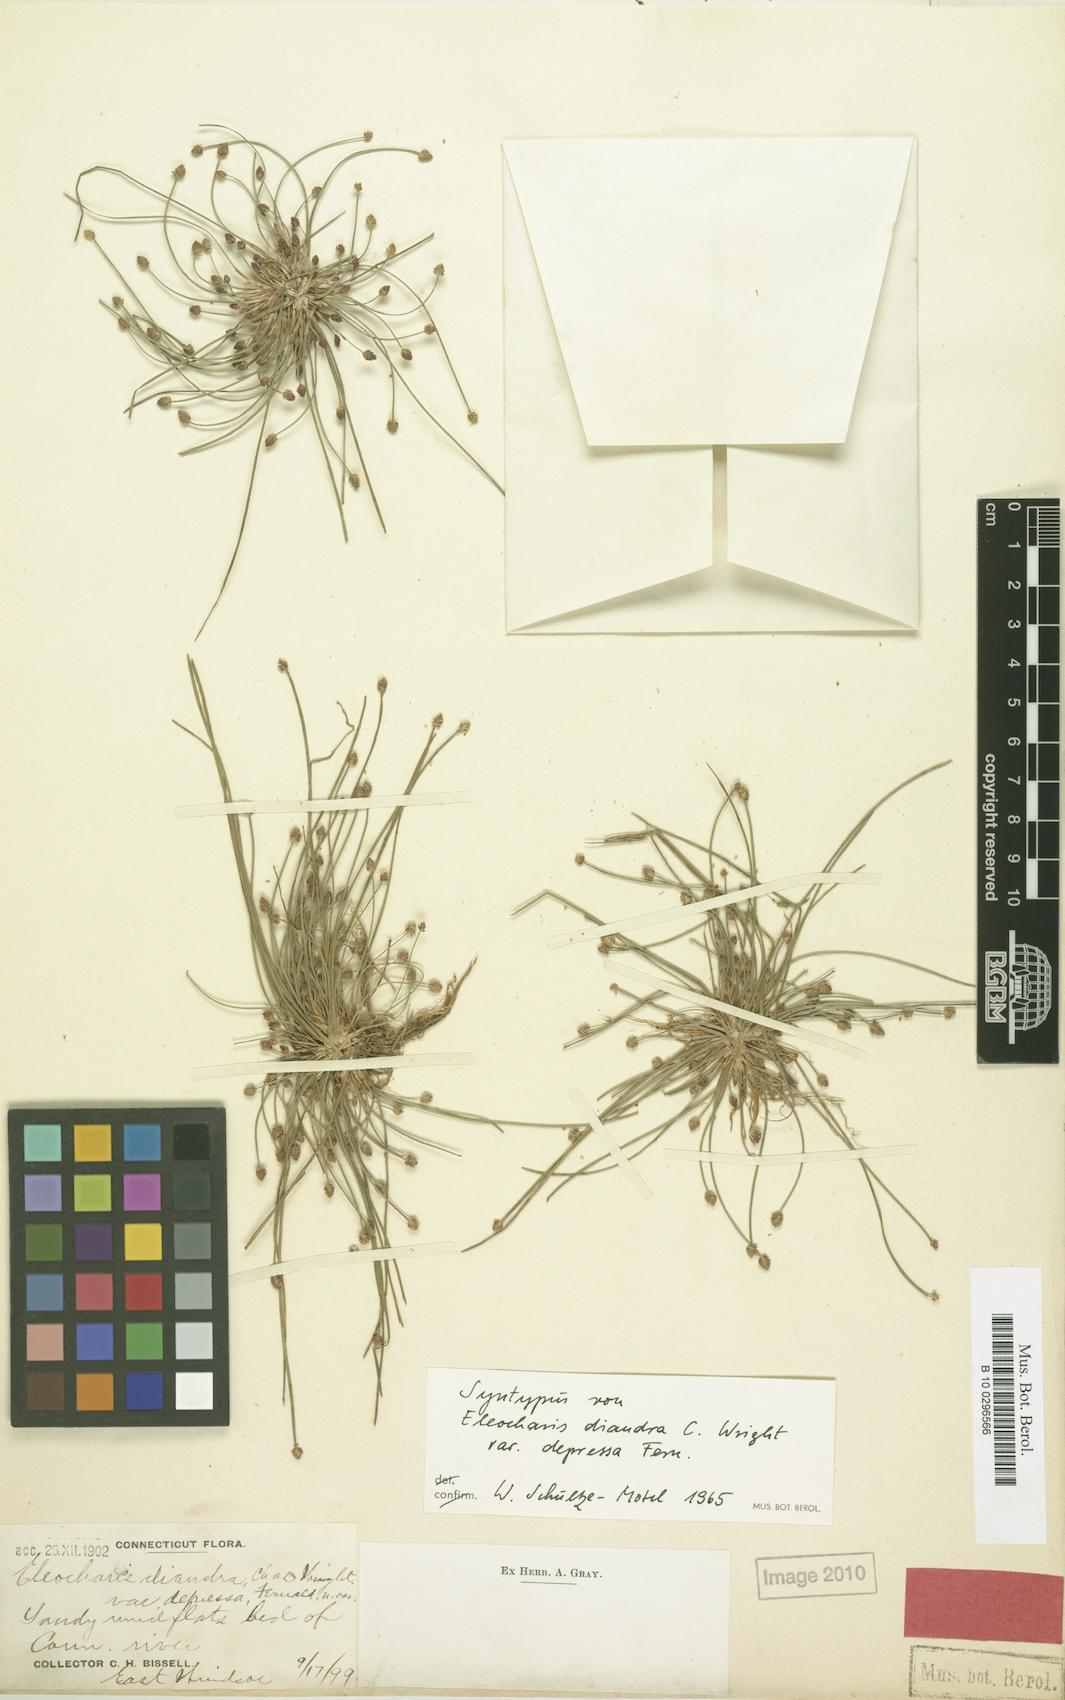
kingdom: Plantae
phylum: Tracheophyta
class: Liliopsida
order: Poales
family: Cyperaceae
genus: Eleocharis
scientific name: Eleocharis obtusa
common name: Blunt spikerush
